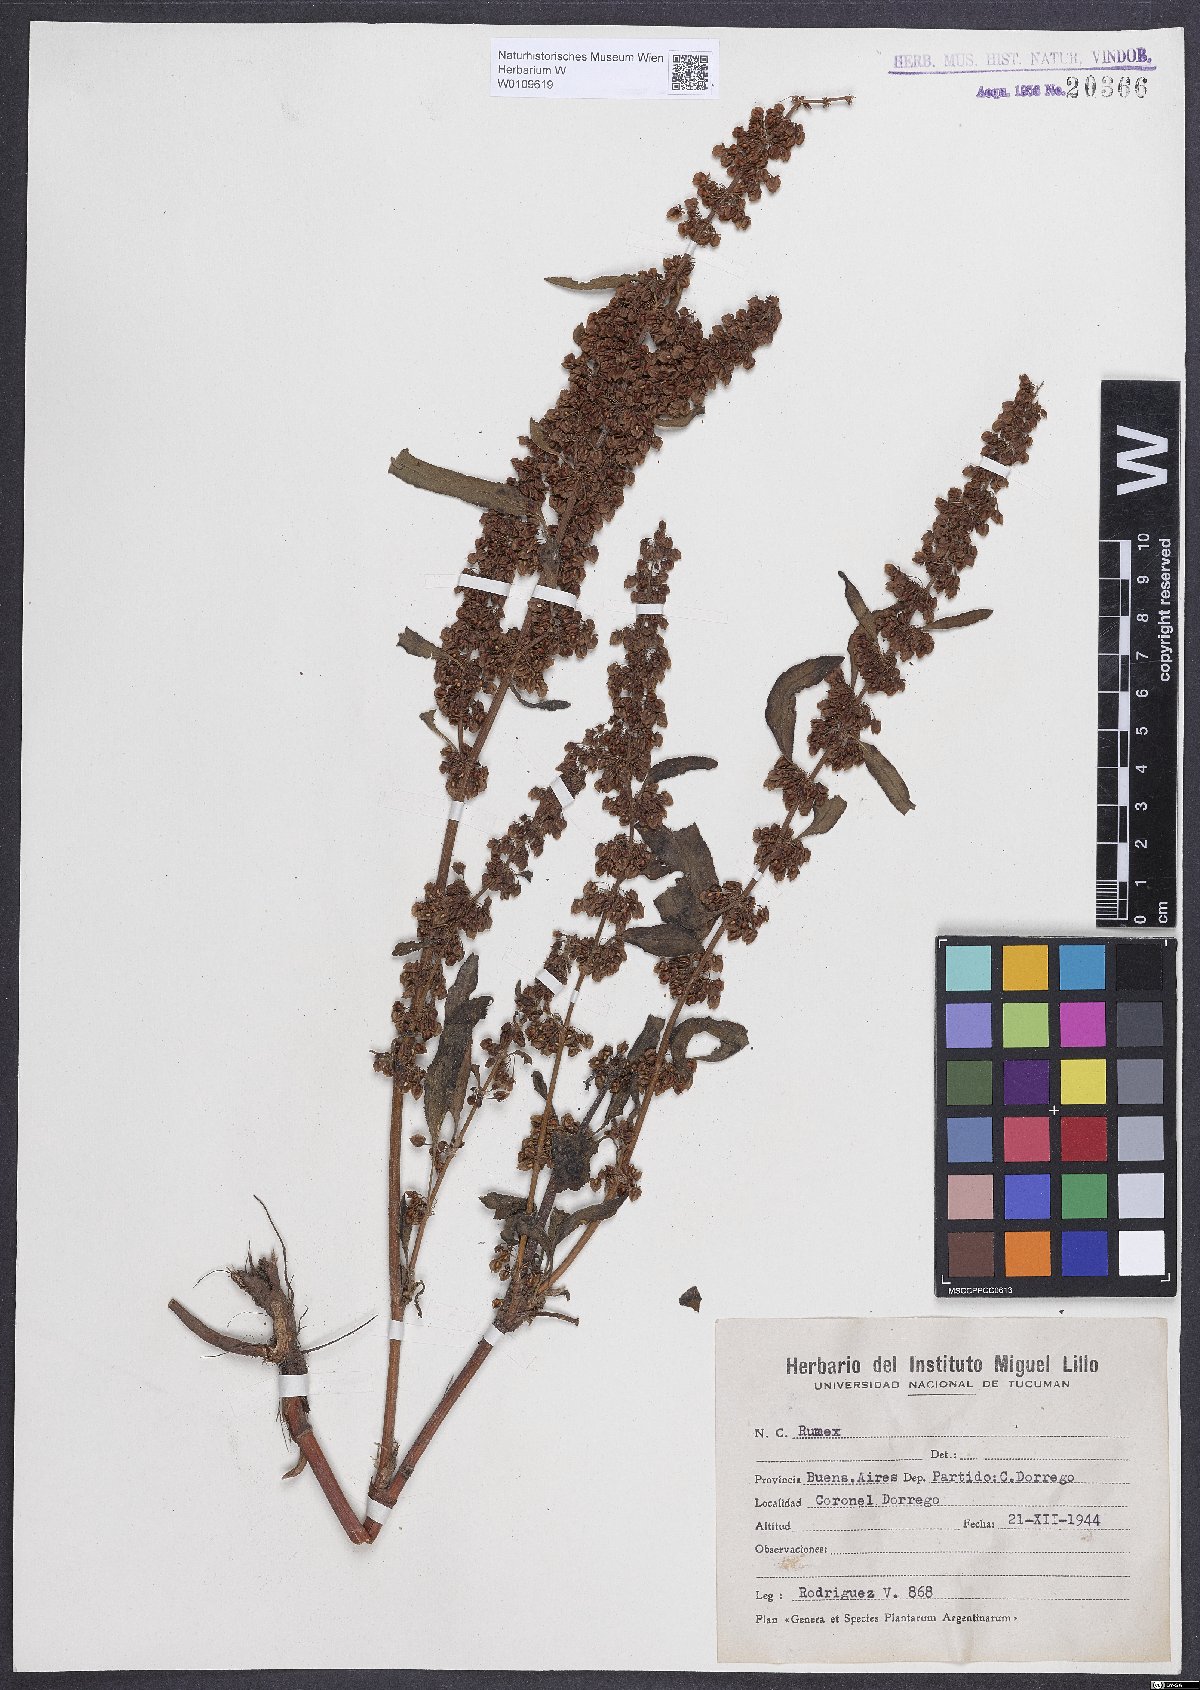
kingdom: Plantae
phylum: Tracheophyta
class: Magnoliopsida
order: Caryophyllales
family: Polygonaceae
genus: Rumex
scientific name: Rumex crispus
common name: Curled dock
